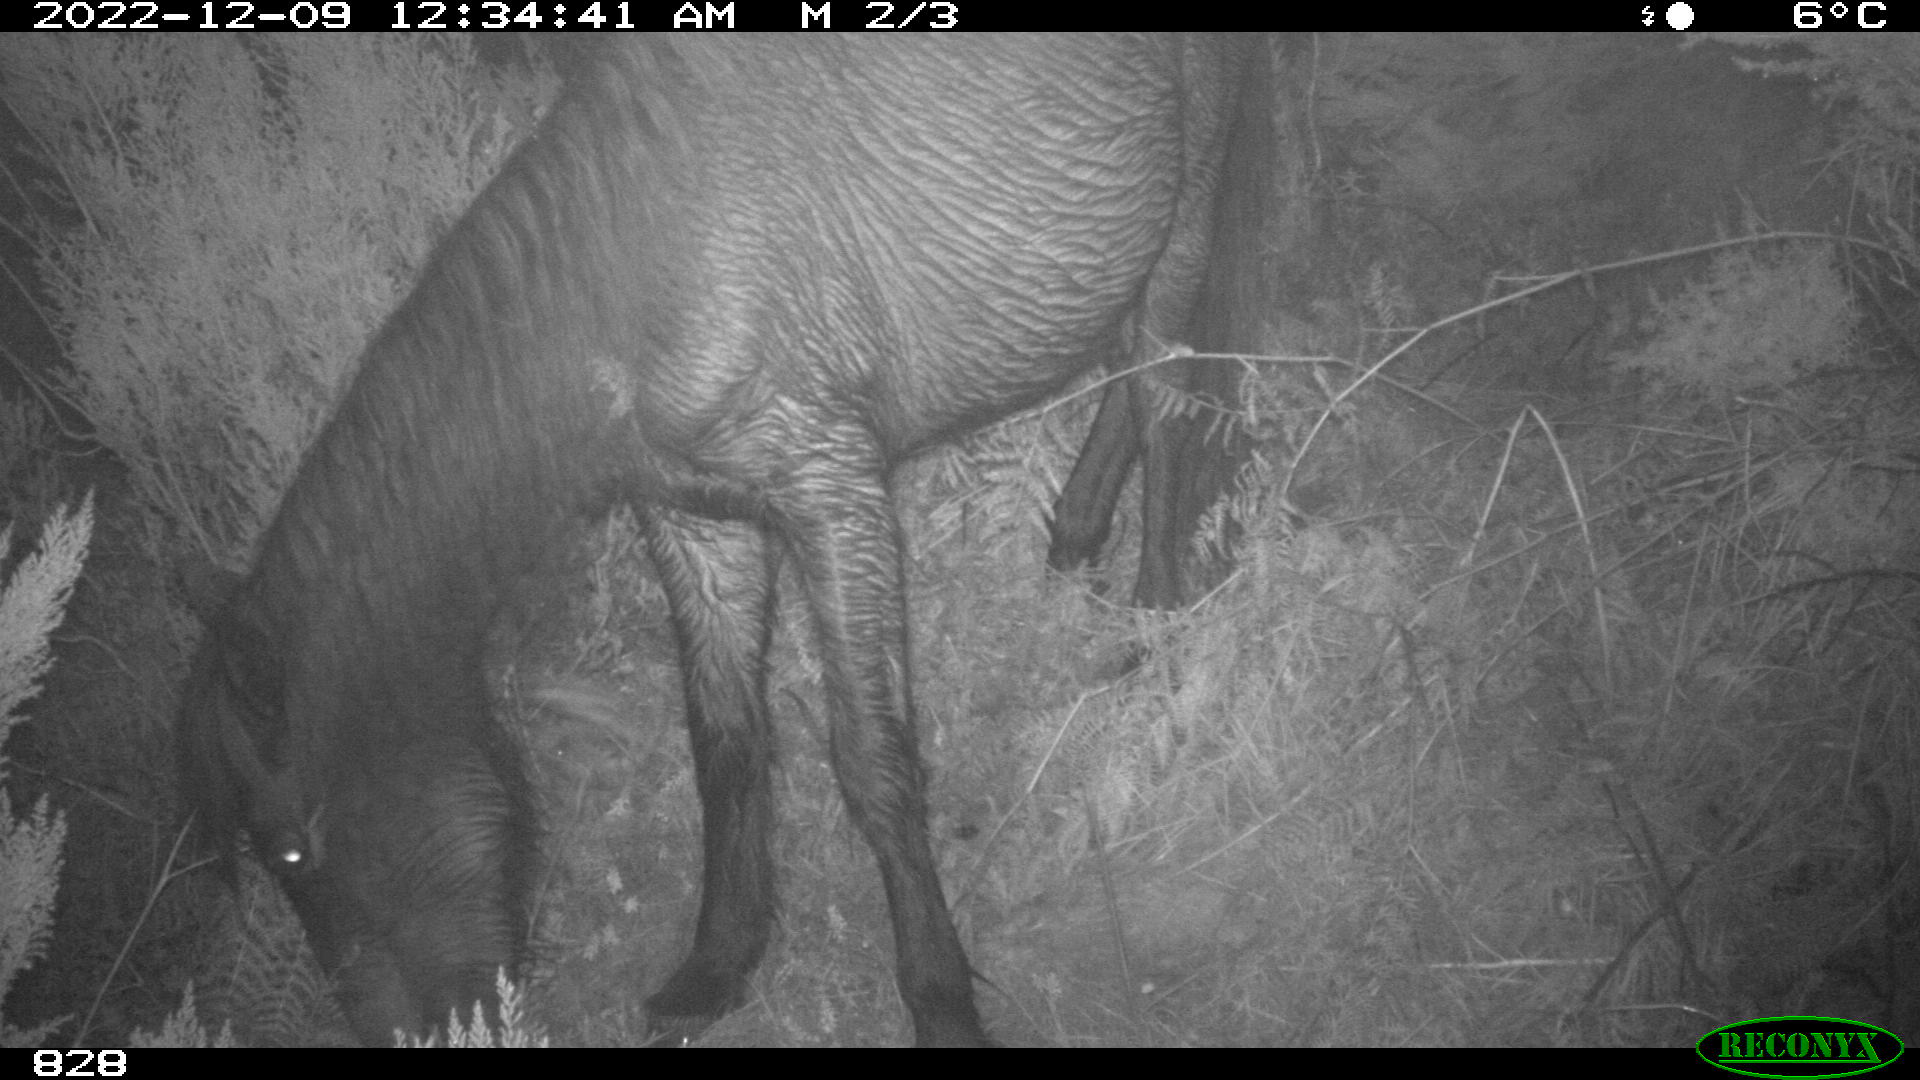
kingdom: Animalia
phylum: Chordata
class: Mammalia
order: Perissodactyla
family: Equidae
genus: Equus
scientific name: Equus caballus
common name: Horse
